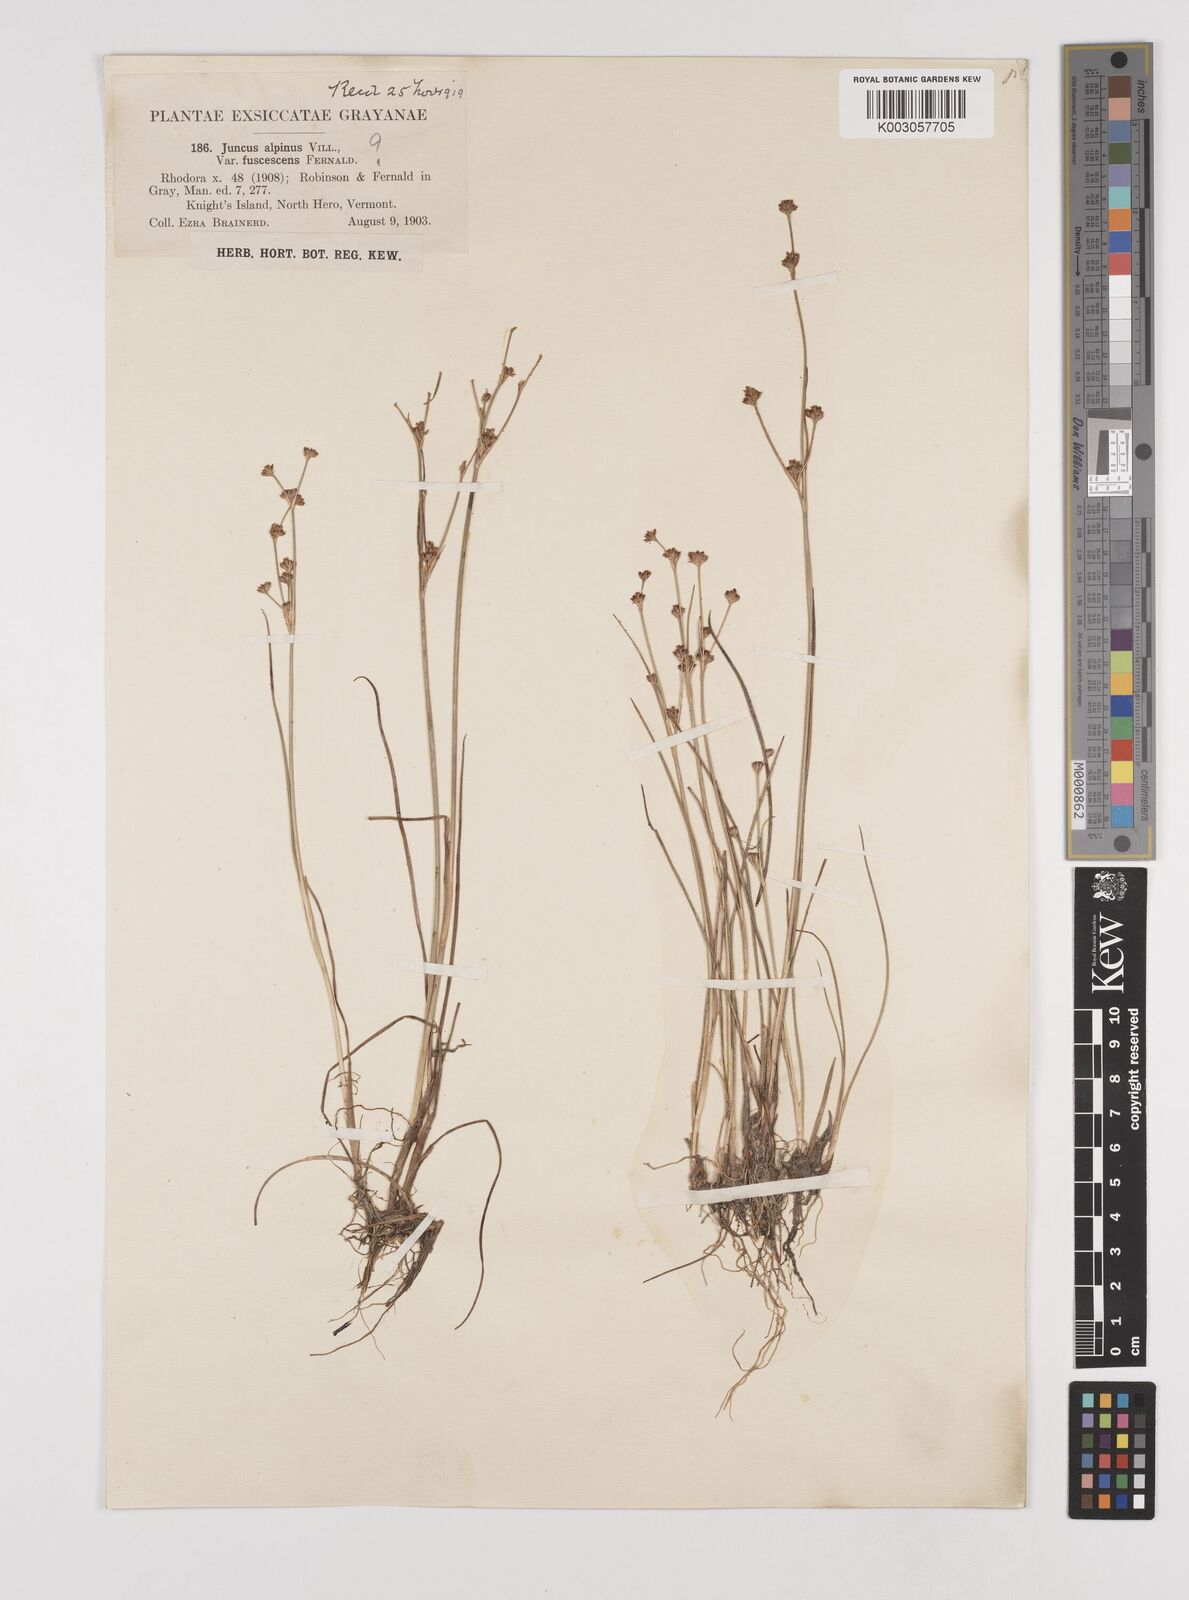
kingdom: Plantae
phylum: Tracheophyta
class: Liliopsida
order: Poales
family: Juncaceae
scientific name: Juncaceae
